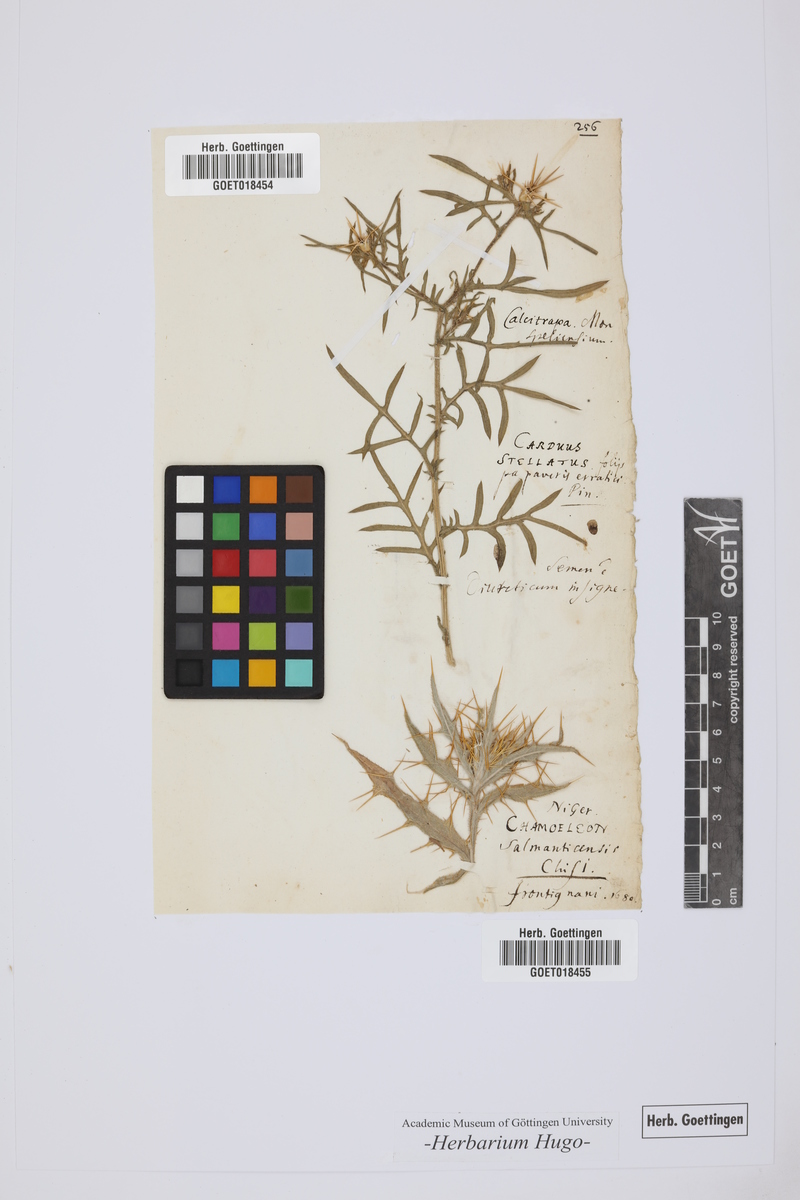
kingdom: Plantae
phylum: Tracheophyta
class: Magnoliopsida
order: Asterales
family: Asteraceae
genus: Carduus
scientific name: Carduus
